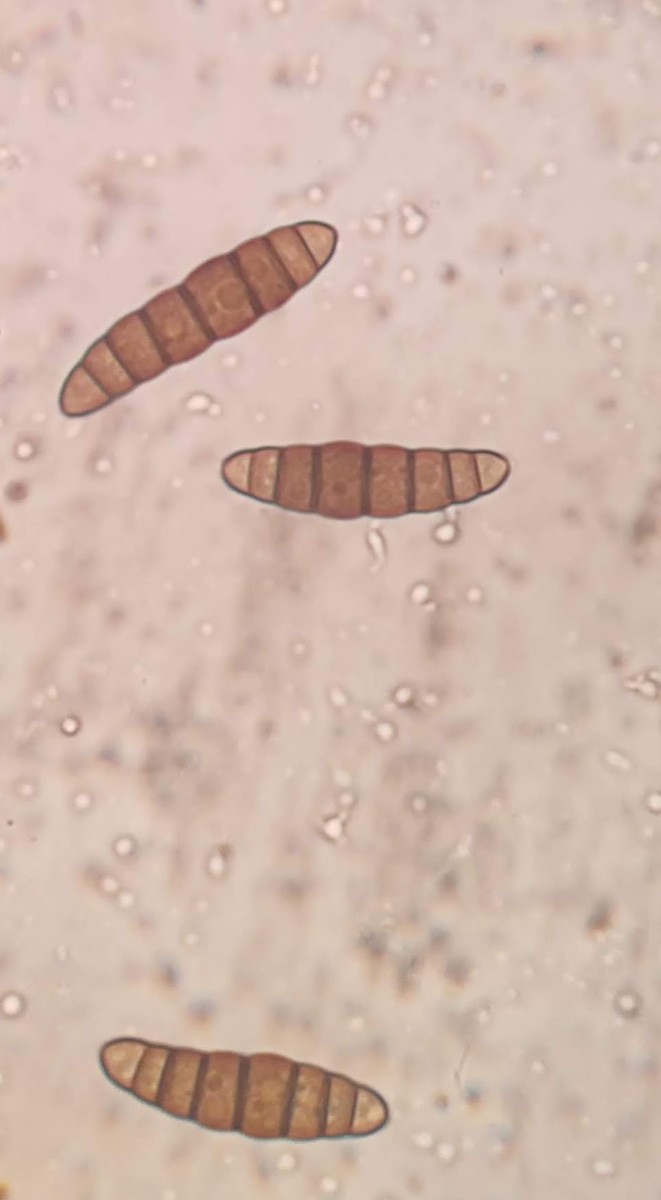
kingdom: Fungi
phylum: Ascomycota
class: Dothideomycetes
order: Pleosporales
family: Thyridariaceae
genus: Thyridaria
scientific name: Thyridaria macrostomoides
